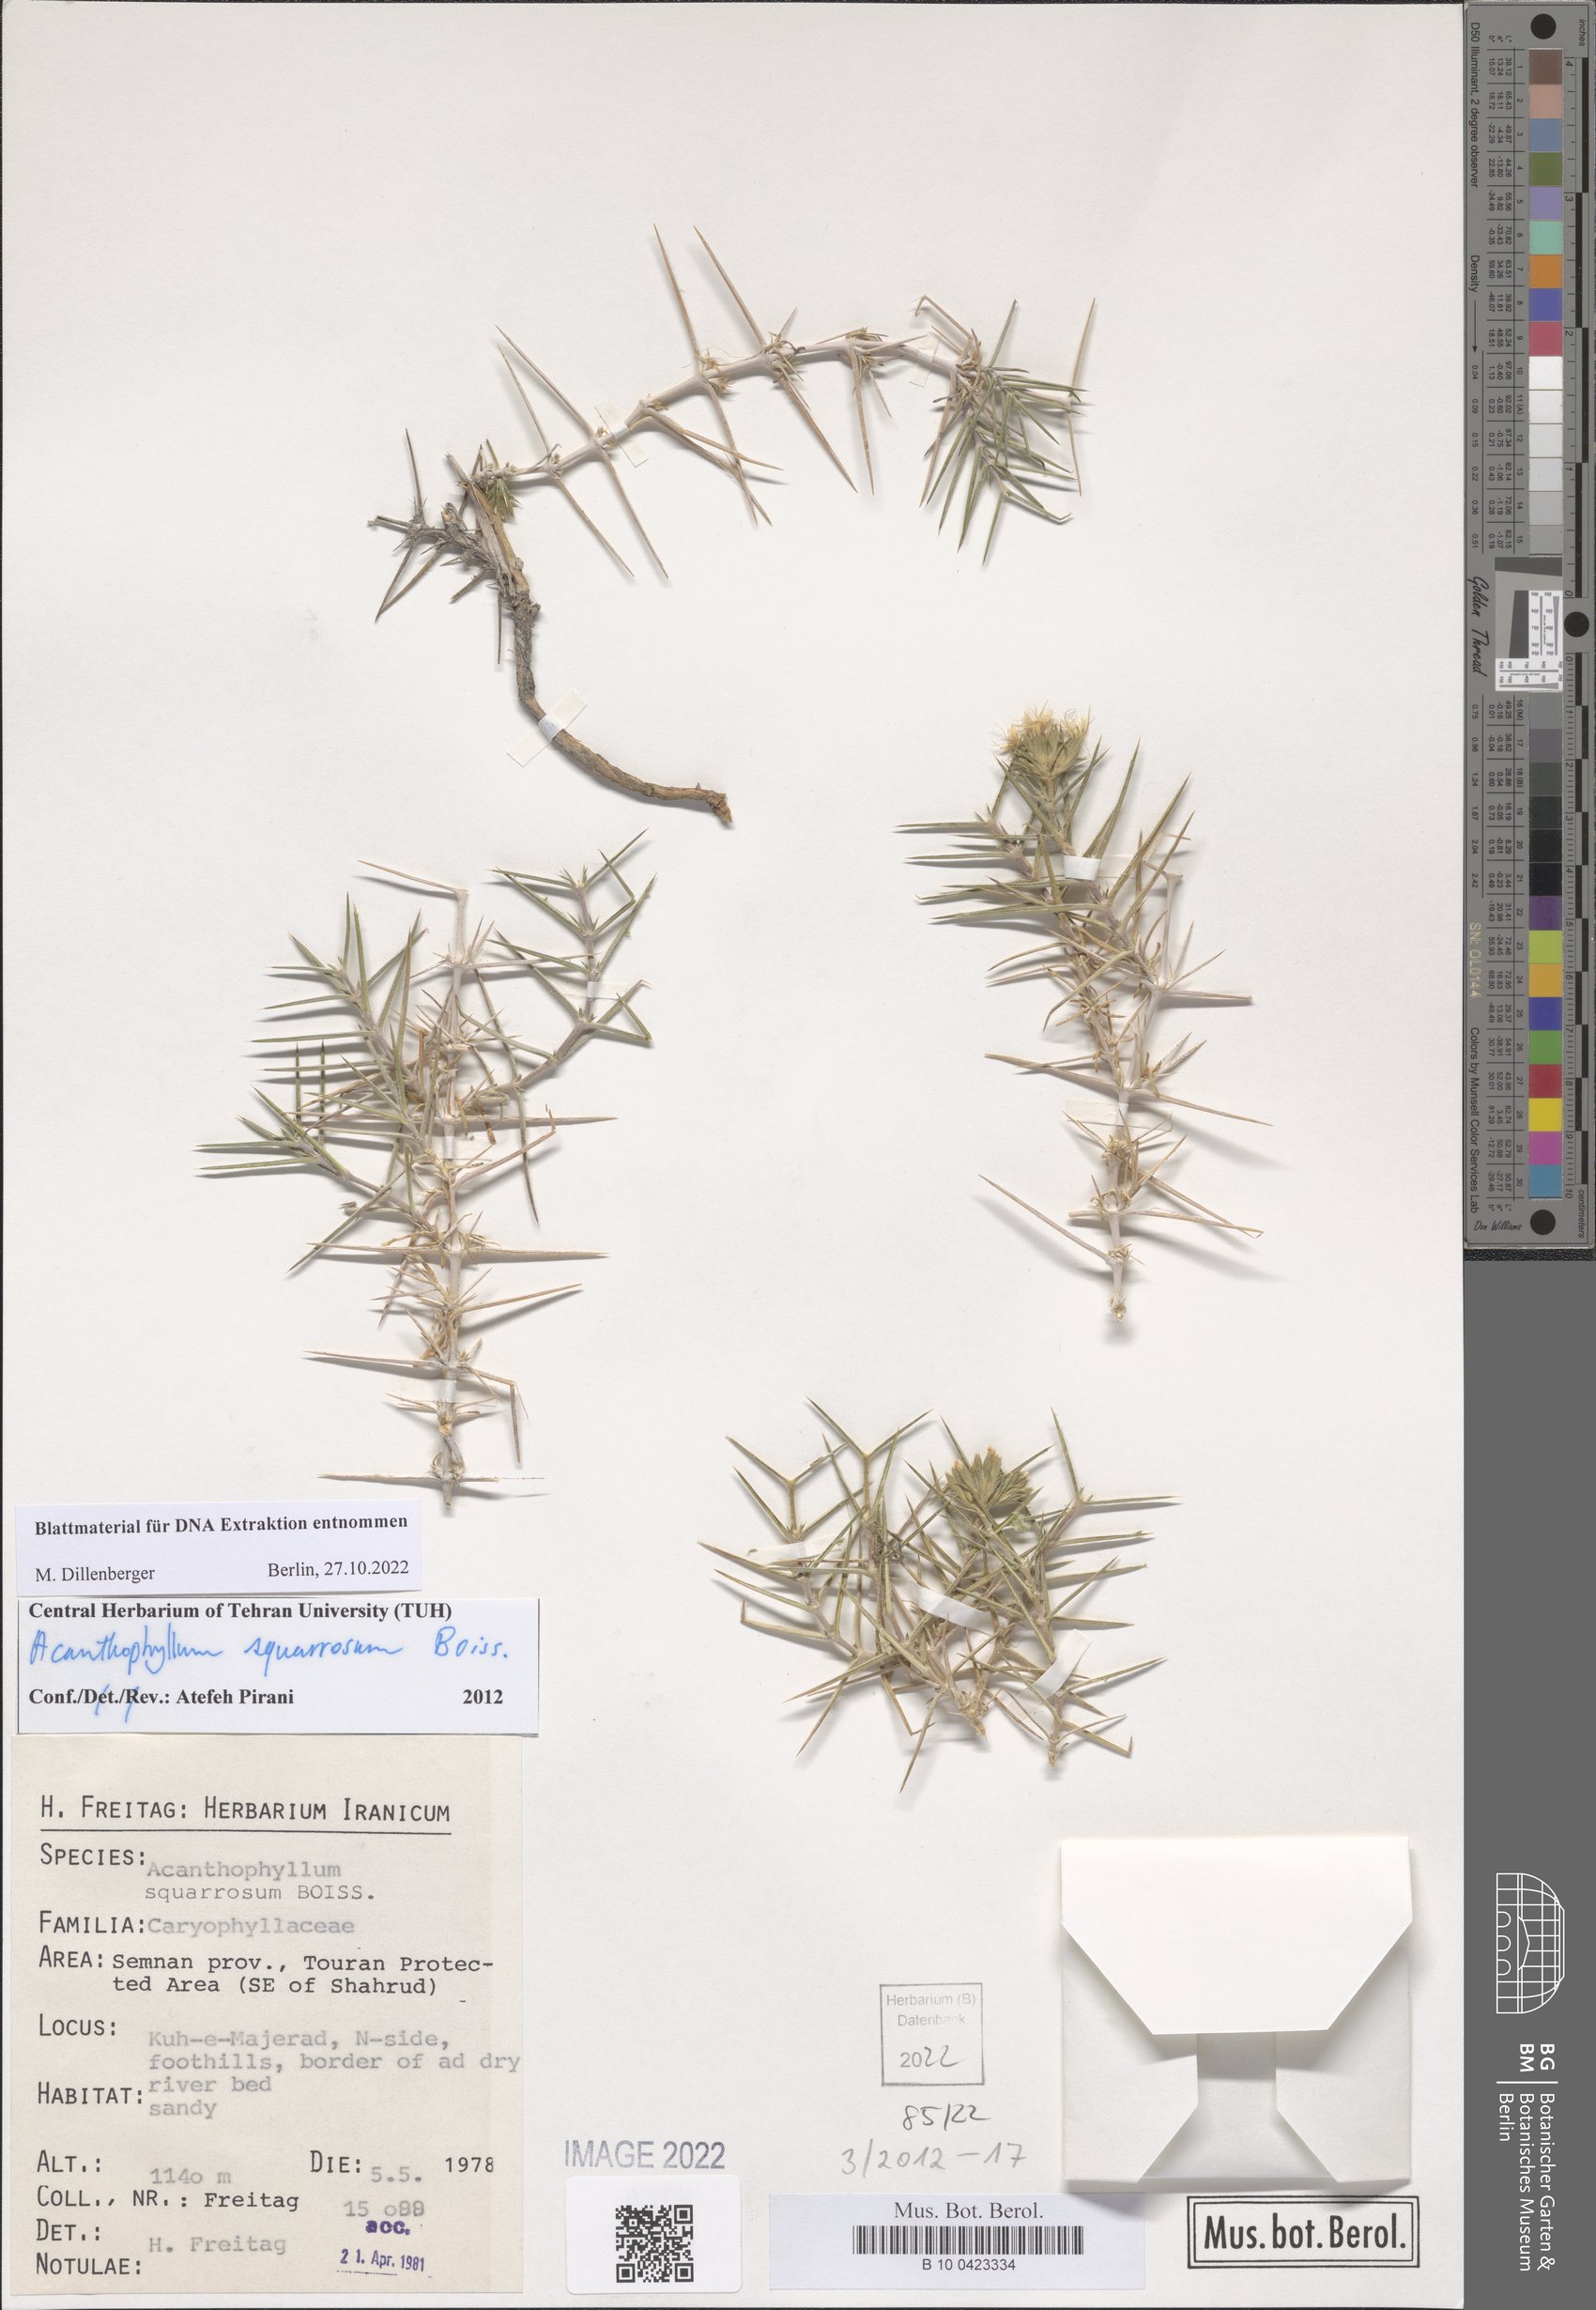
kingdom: Plantae
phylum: Tracheophyta
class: Magnoliopsida
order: Caryophyllales
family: Caryophyllaceae
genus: Acanthophyllum
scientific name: Acanthophyllum squarrosum
